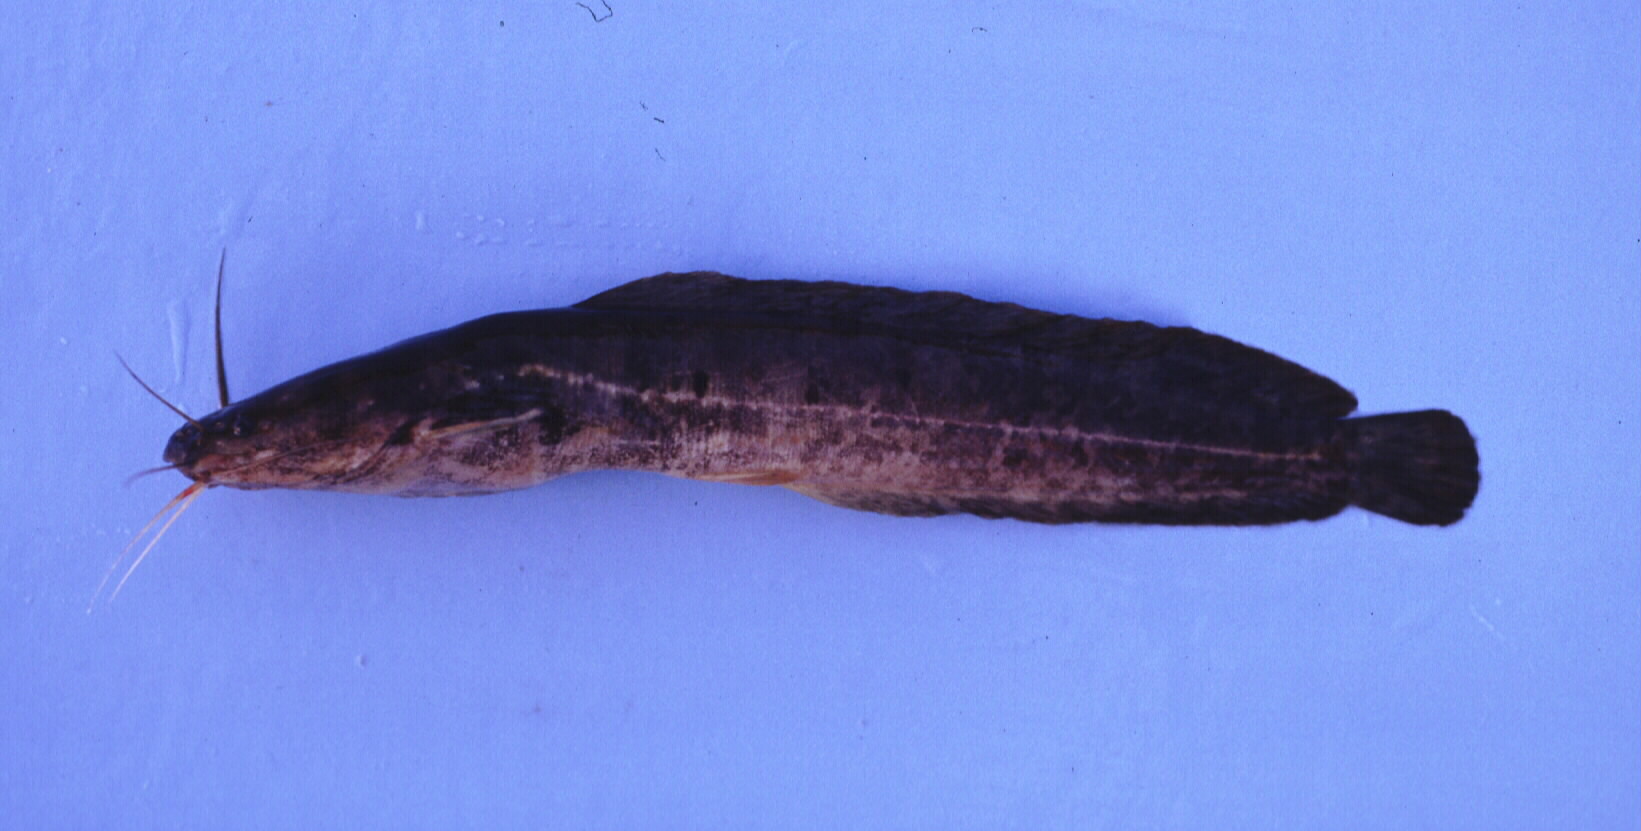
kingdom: Animalia
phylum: Chordata
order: Siluriformes
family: Clariidae
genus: Clarias
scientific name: Clarias stappersii
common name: Blotched catfish
